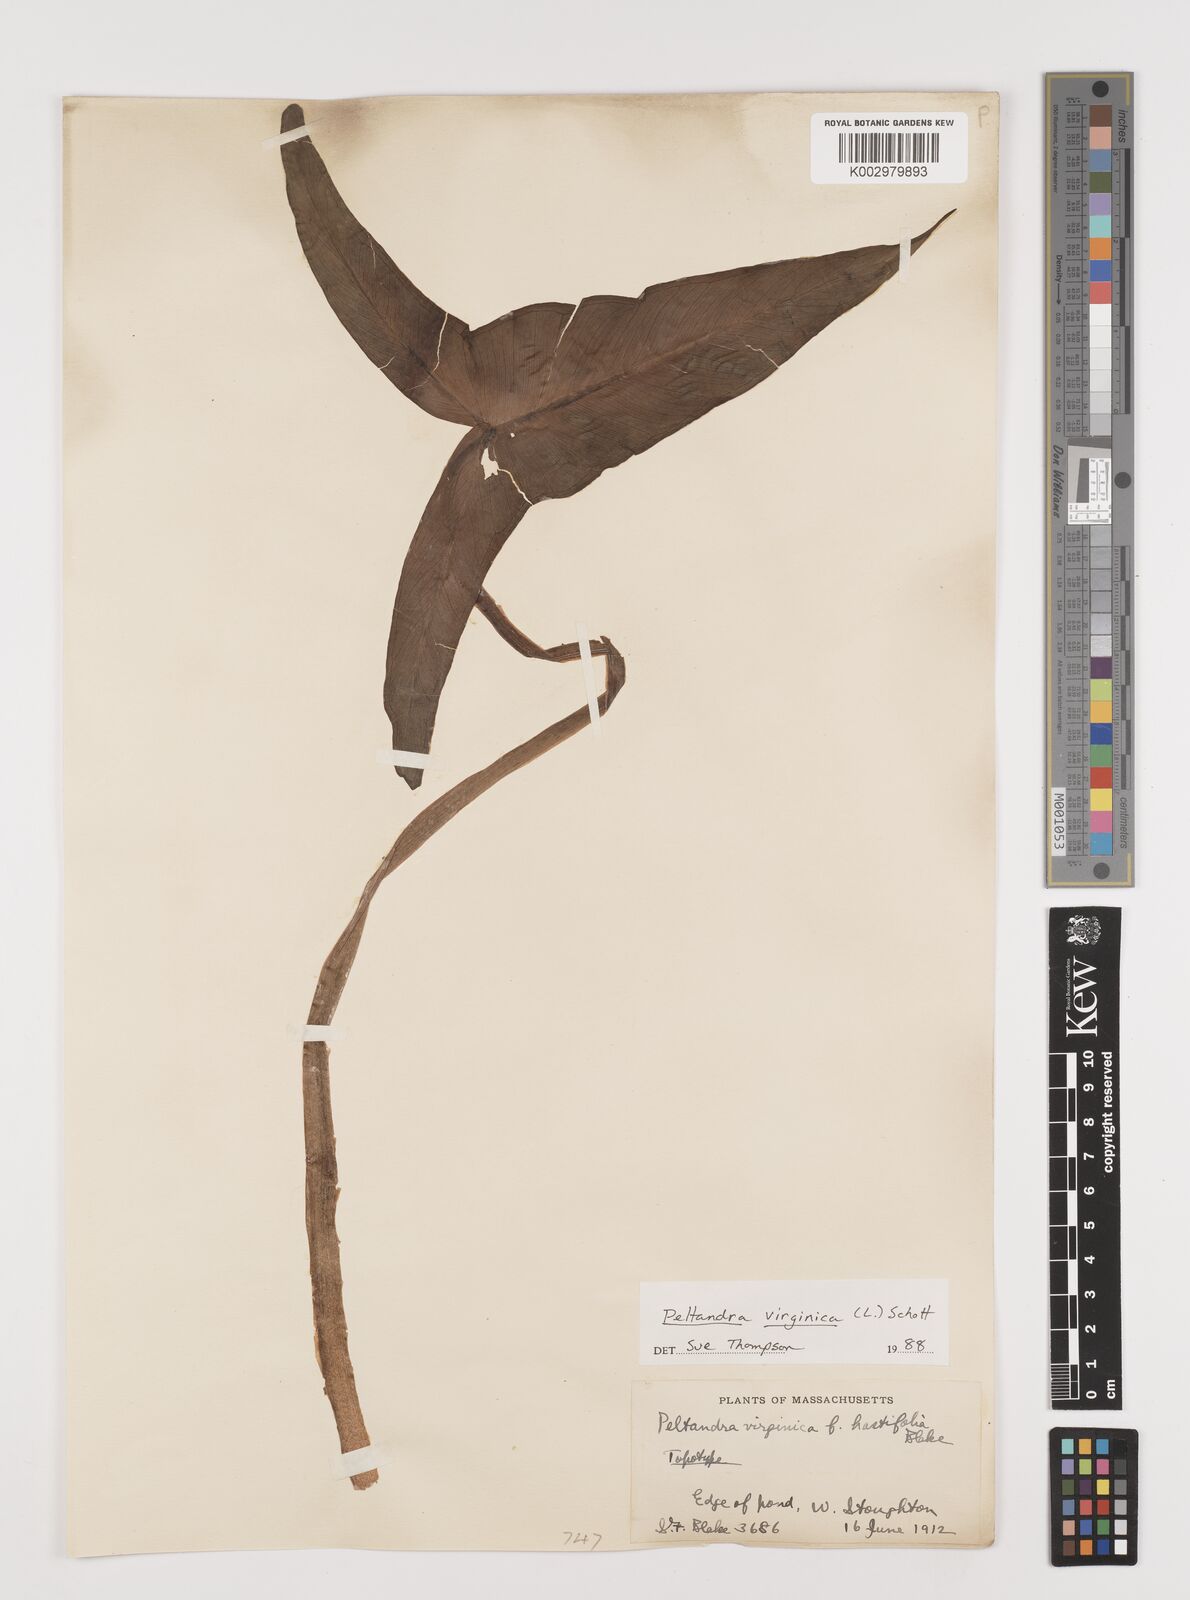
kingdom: Plantae
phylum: Tracheophyta
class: Liliopsida
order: Alismatales
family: Araceae
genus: Peltandra
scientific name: Peltandra virginica
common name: Arrow arum
